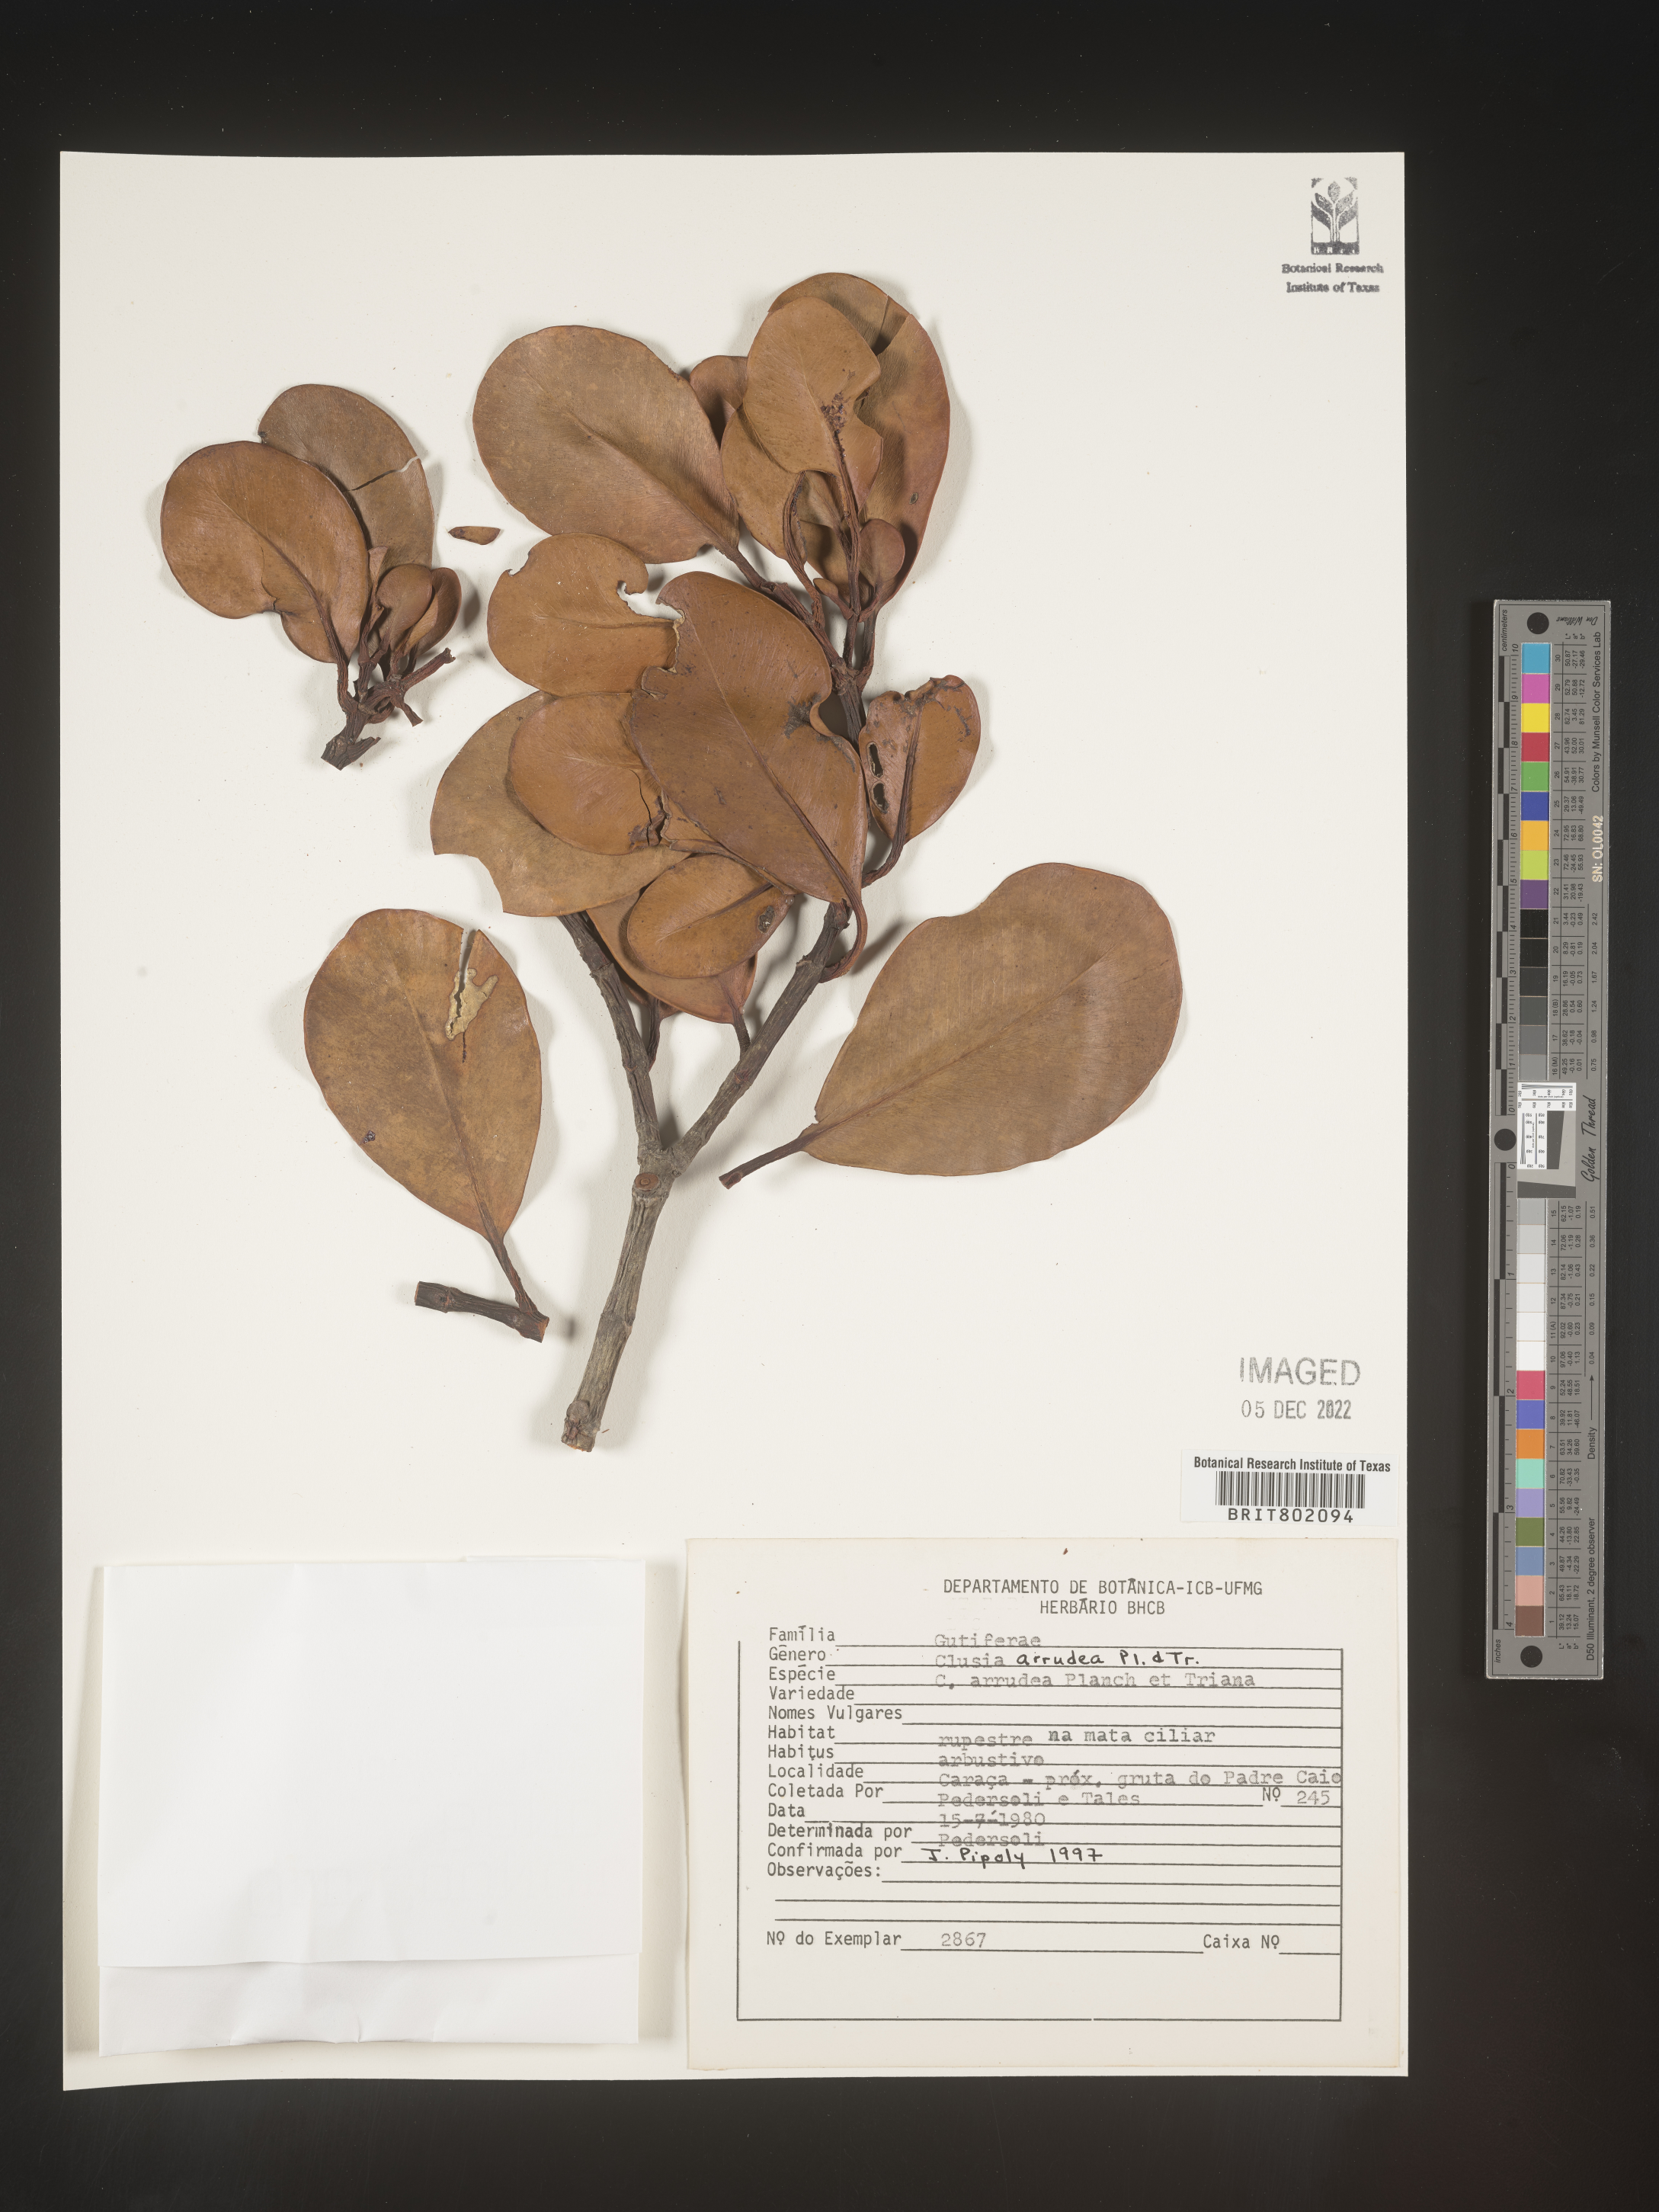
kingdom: Plantae
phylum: Tracheophyta
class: Magnoliopsida
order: Malpighiales
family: Clusiaceae
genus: Clusia
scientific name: Clusia mexiae
